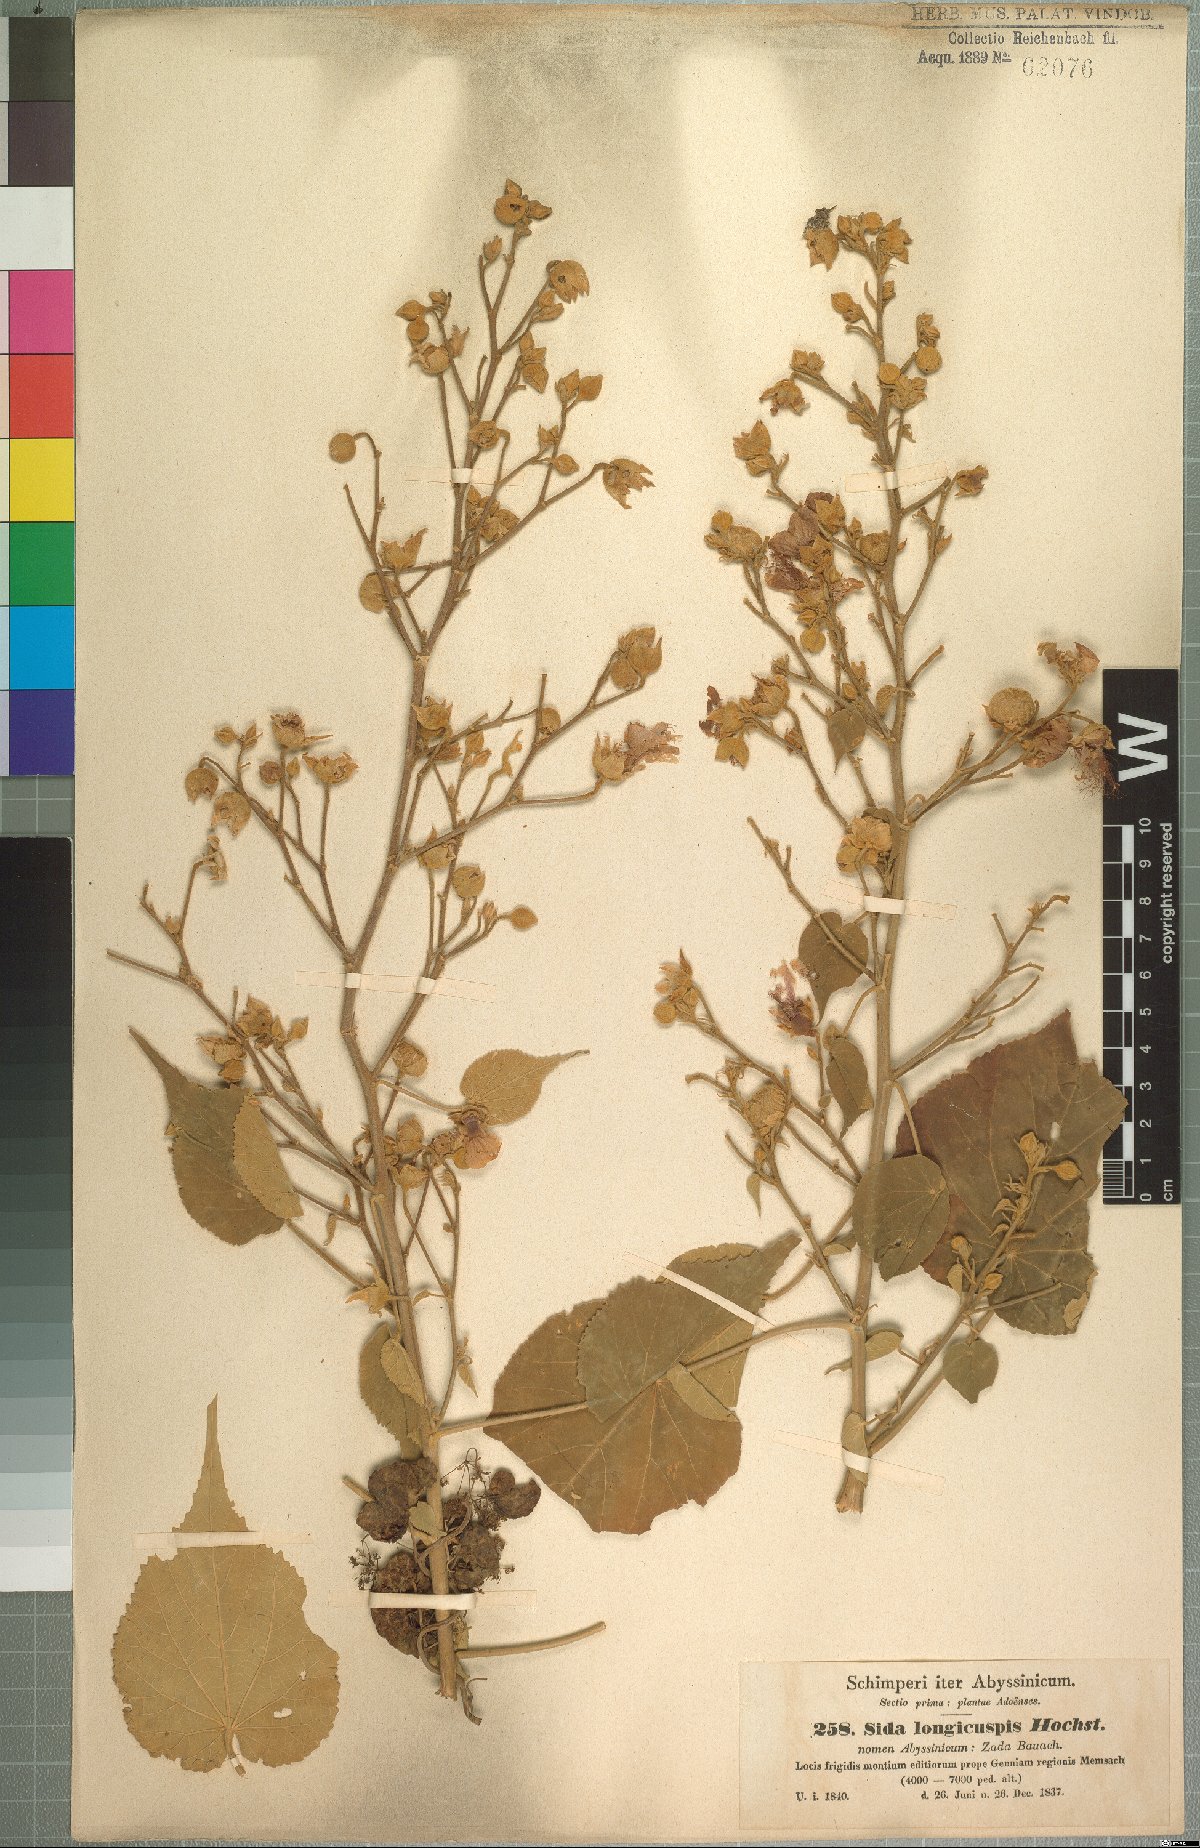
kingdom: Plantae
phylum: Tracheophyta
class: Magnoliopsida
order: Malvales
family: Malvaceae
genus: Abutilon
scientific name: Abutilon longicuspe
